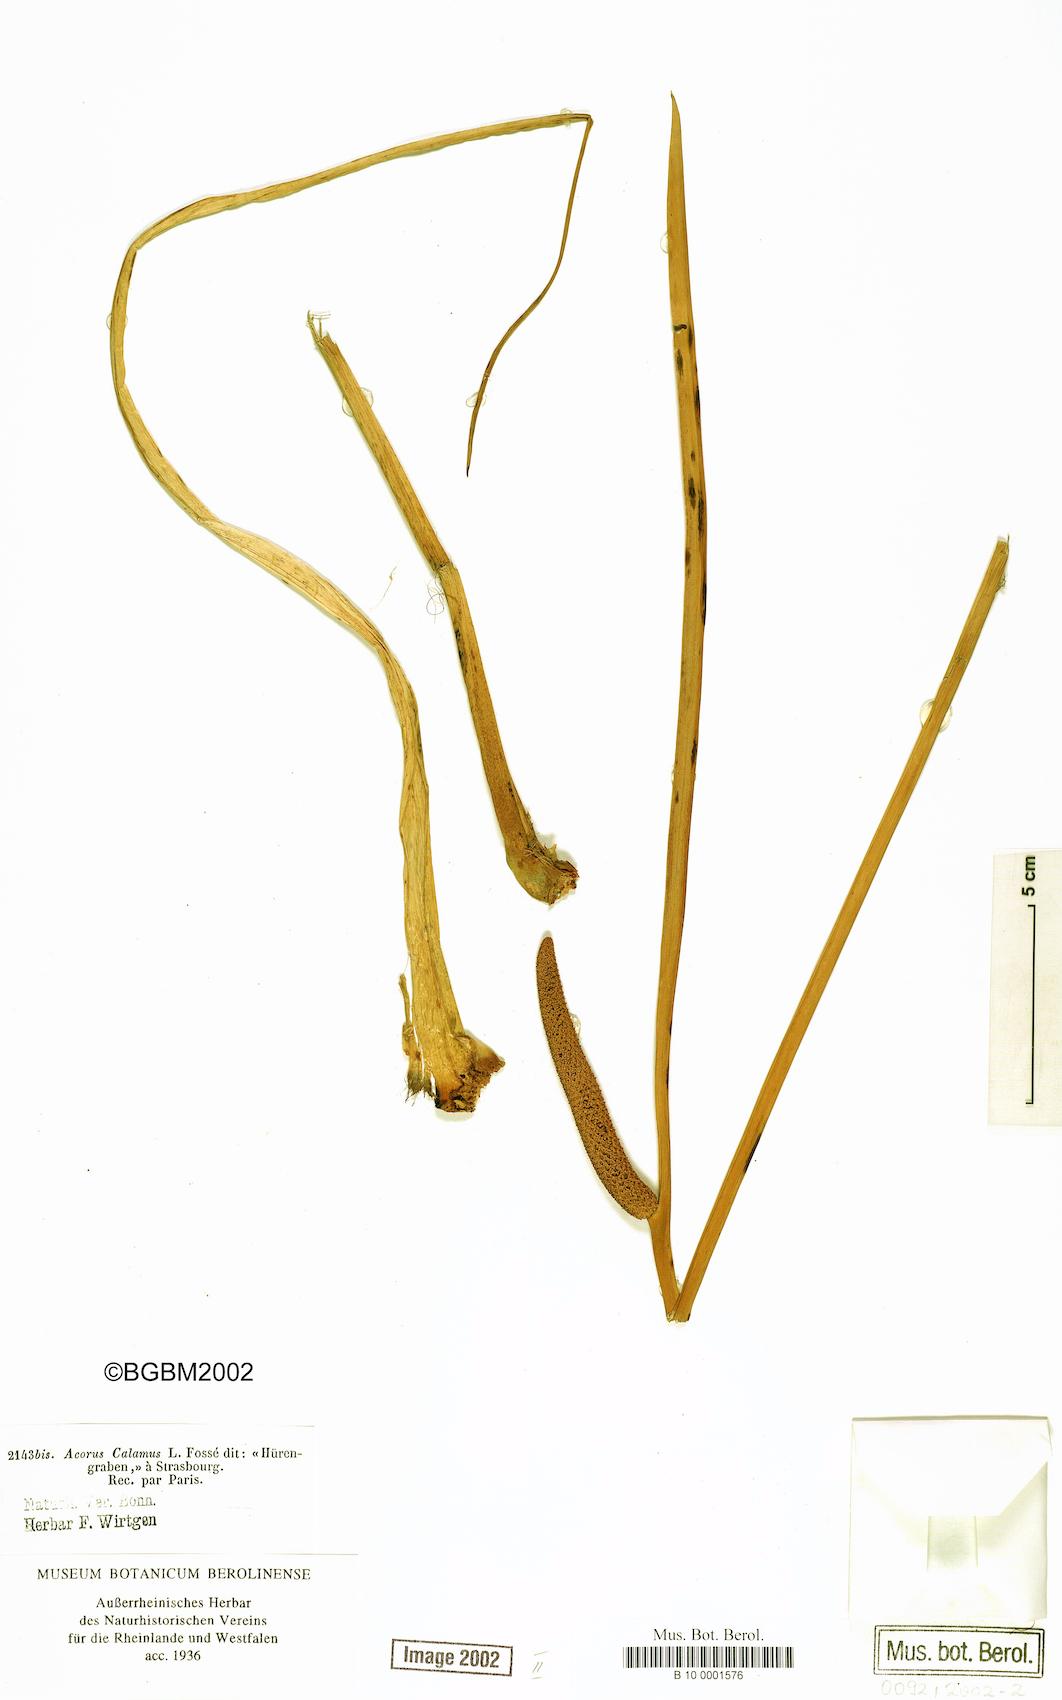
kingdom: Plantae
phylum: Tracheophyta
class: Liliopsida
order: Acorales
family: Acoraceae
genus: Acorus
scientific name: Acorus calamus
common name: Sweet-flag
